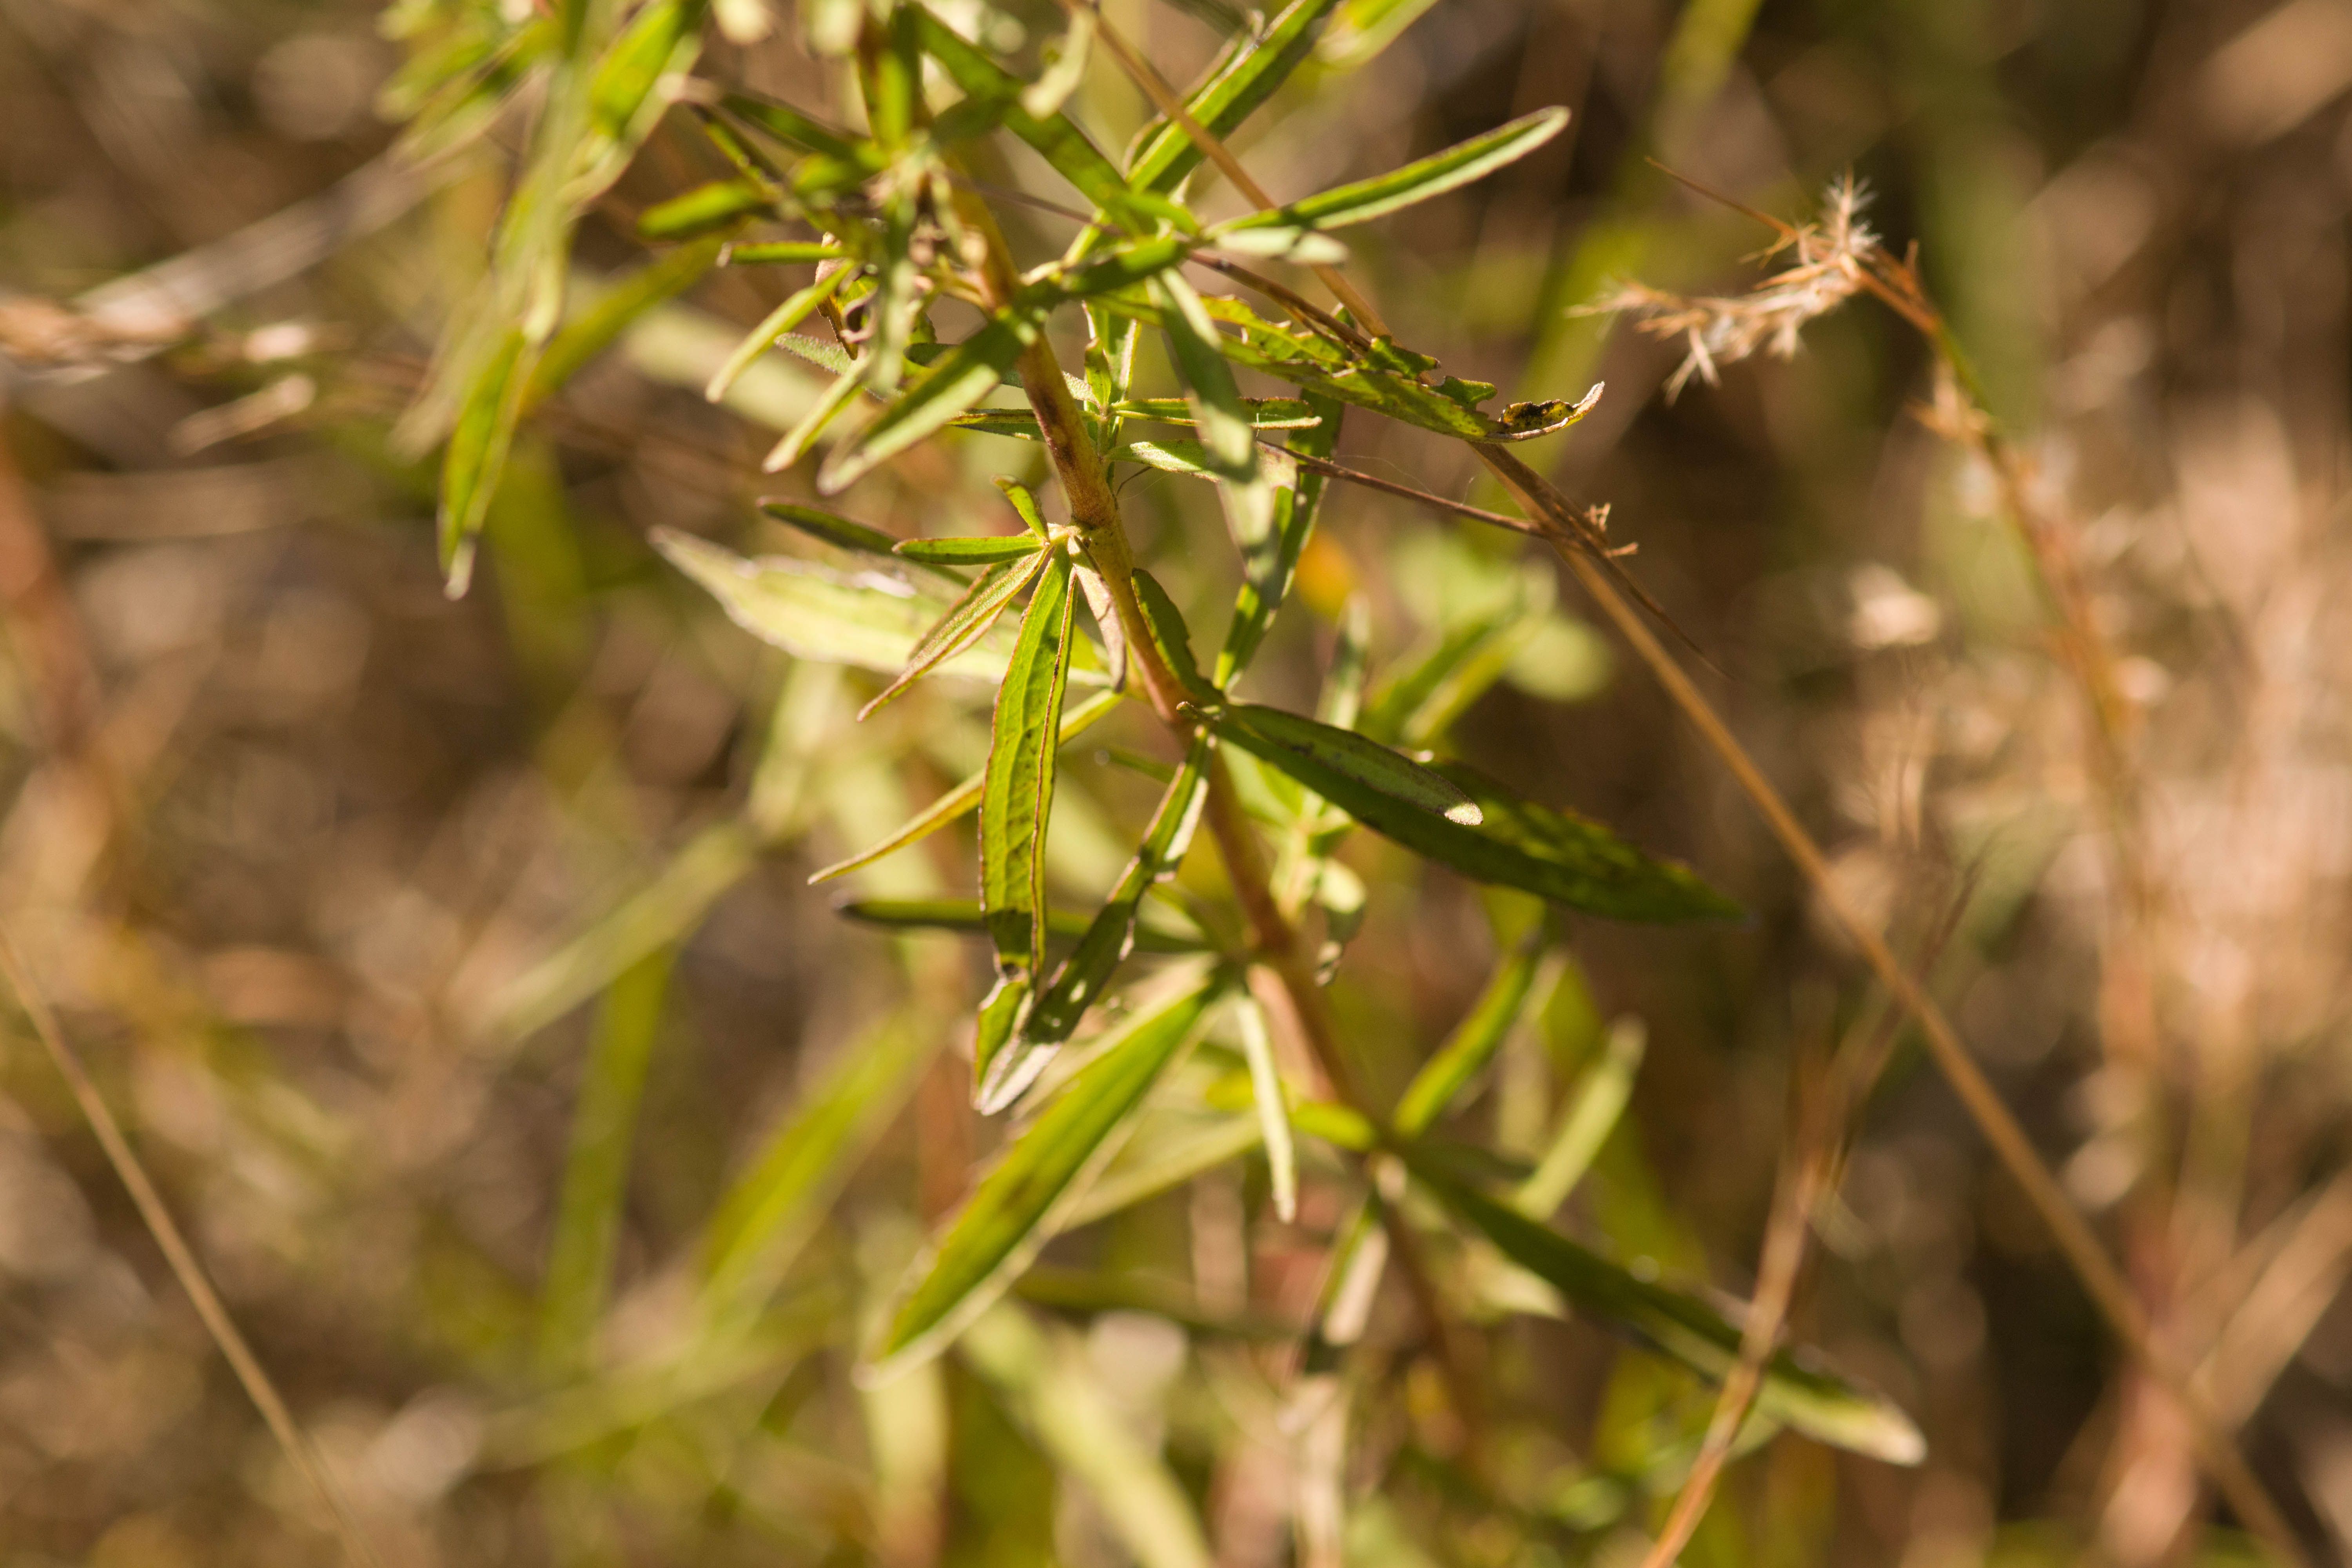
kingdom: Plantae
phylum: Tracheophyta
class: Magnoliopsida
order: Asterales
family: Asteraceae
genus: Eupatorium
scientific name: Eupatorium hyssopifolium
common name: Hyssop-leaf thoroughwort
